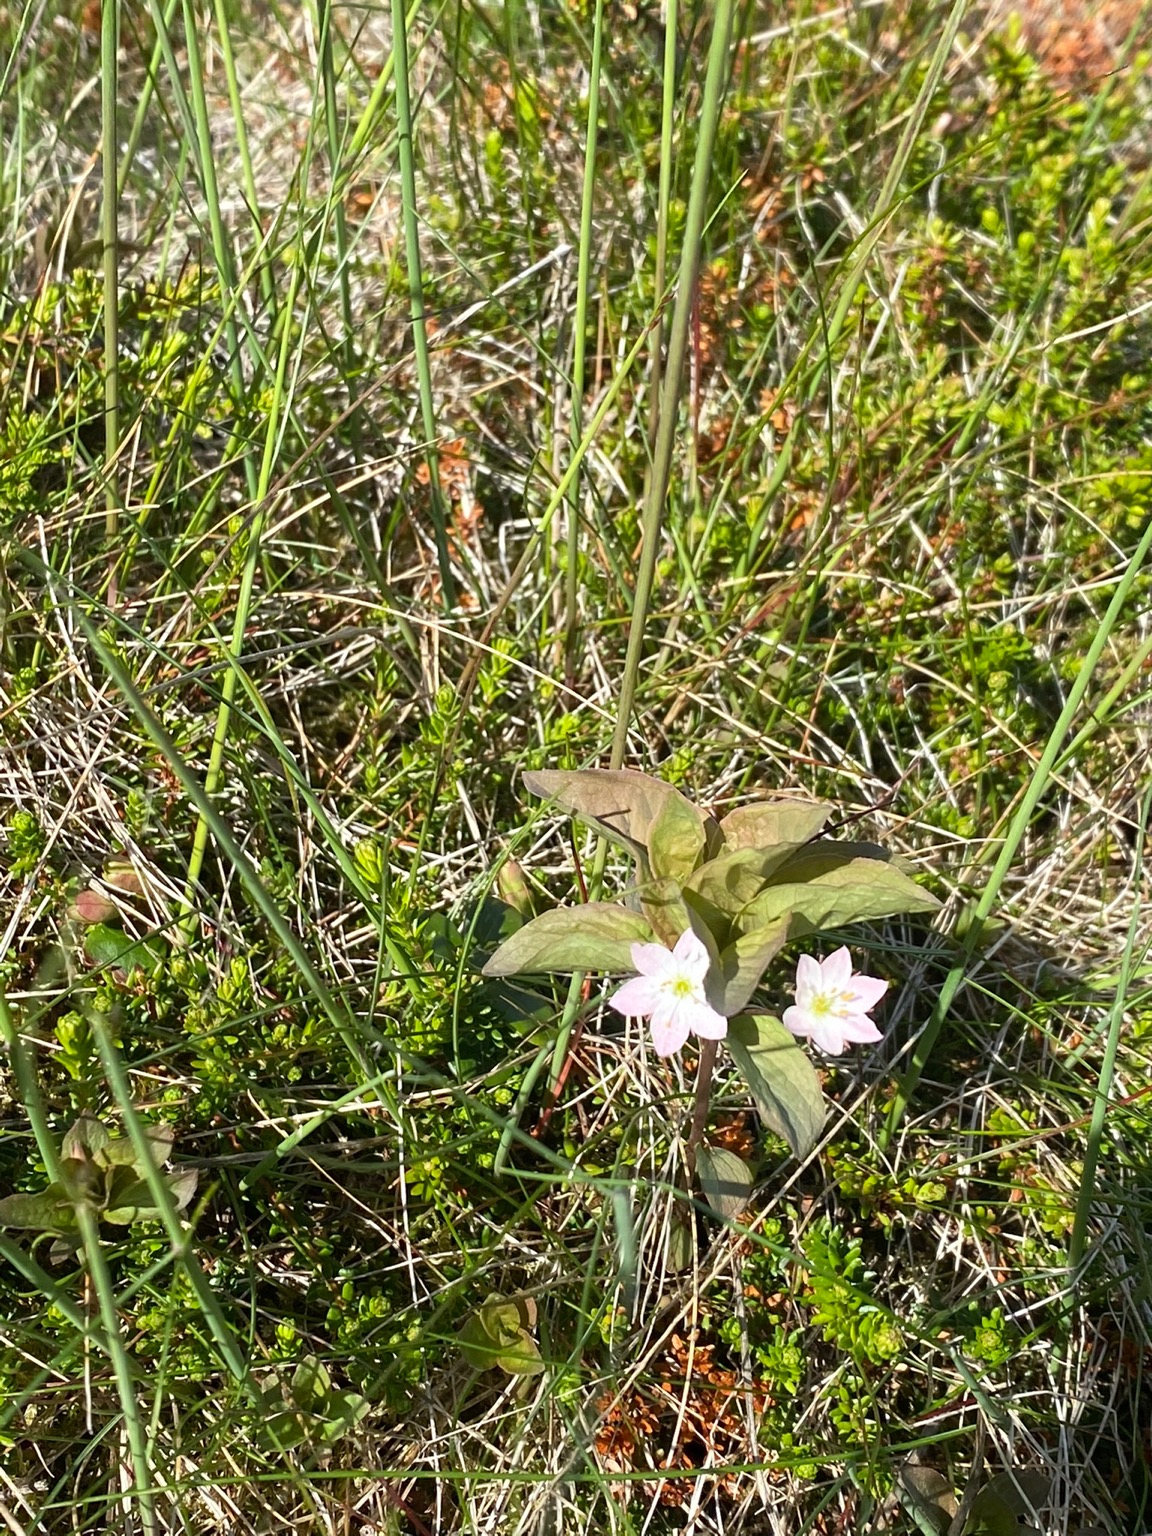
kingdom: Plantae
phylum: Tracheophyta
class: Magnoliopsida
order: Ericales
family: Primulaceae
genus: Lysimachia
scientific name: Lysimachia europaea
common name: Skovstjerne
